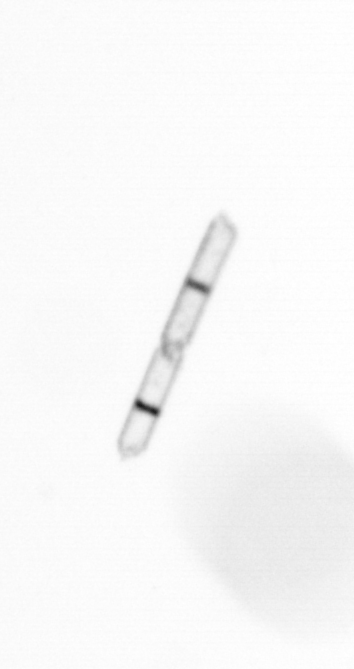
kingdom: Chromista
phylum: Ochrophyta
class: Bacillariophyceae
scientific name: Bacillariophyceae
